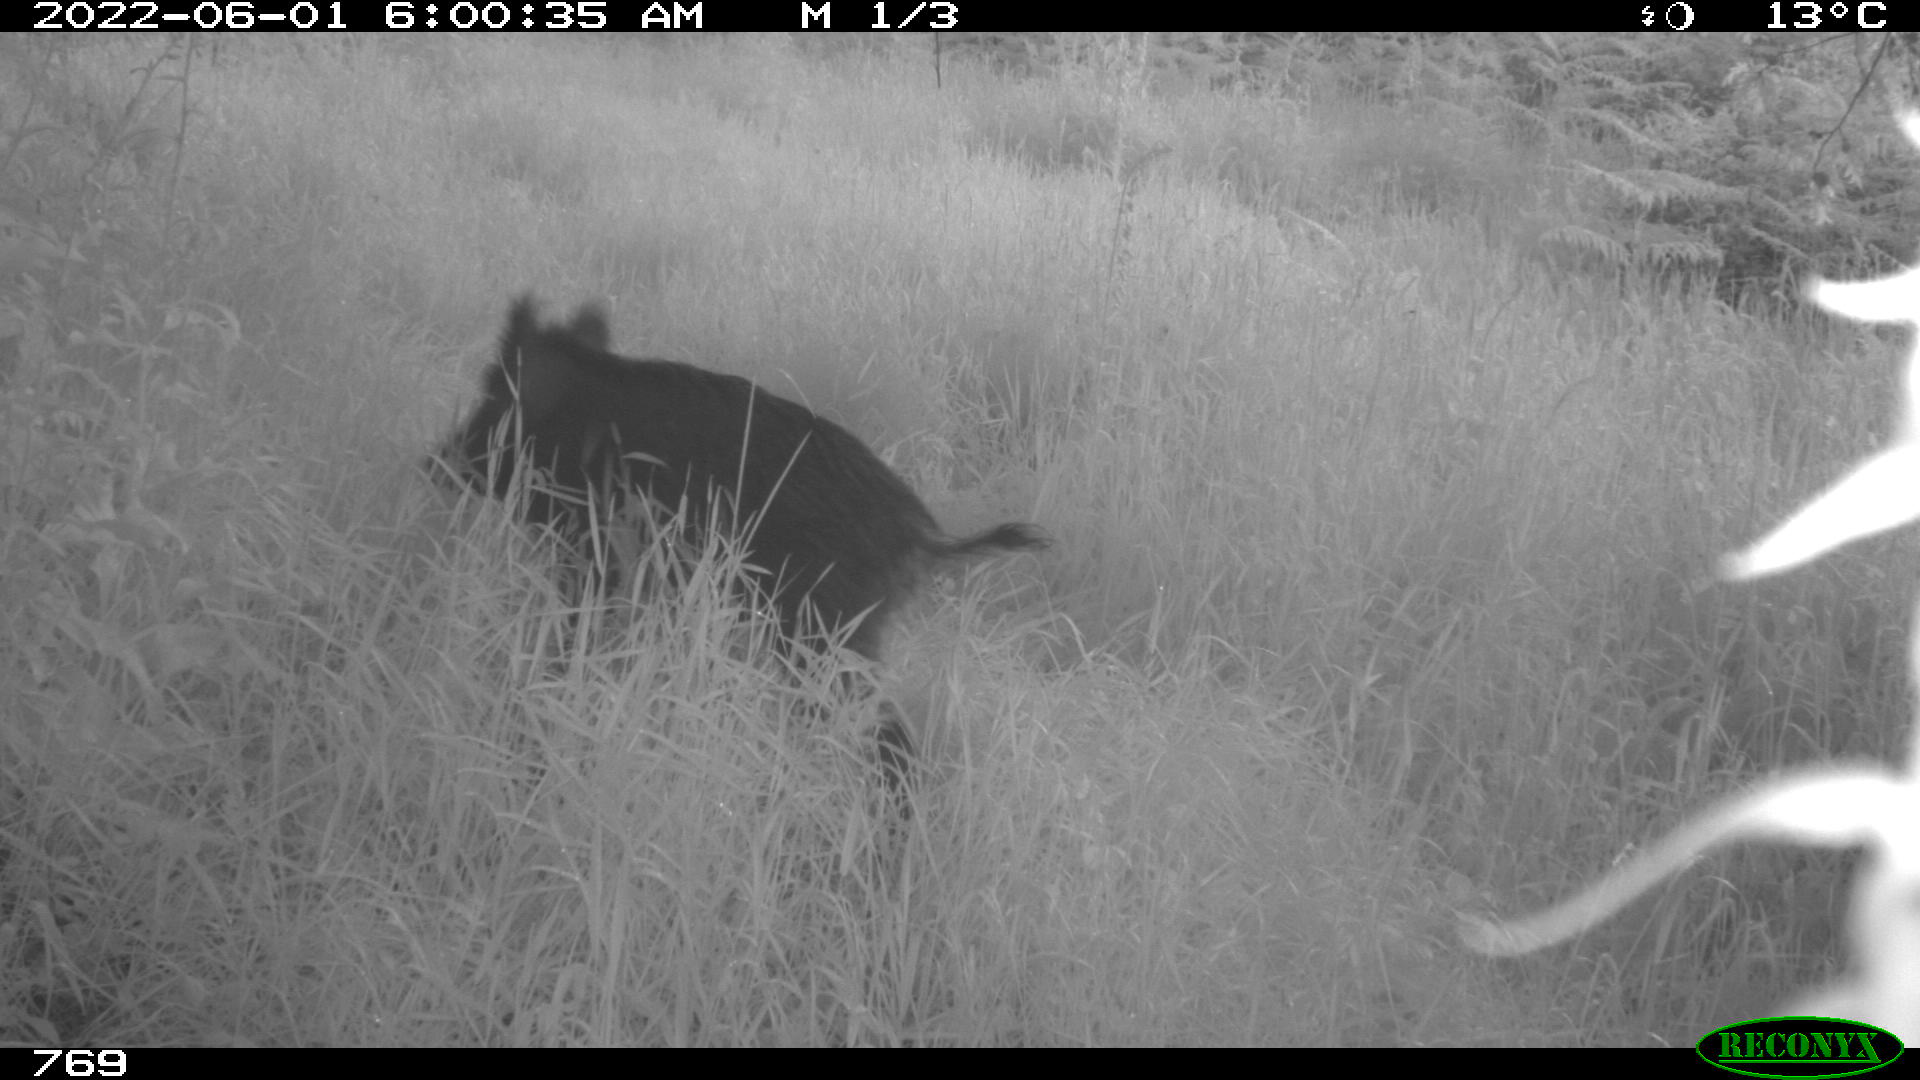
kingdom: Animalia
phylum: Chordata
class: Mammalia
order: Artiodactyla
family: Suidae
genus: Sus
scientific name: Sus scrofa
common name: Wild boar
